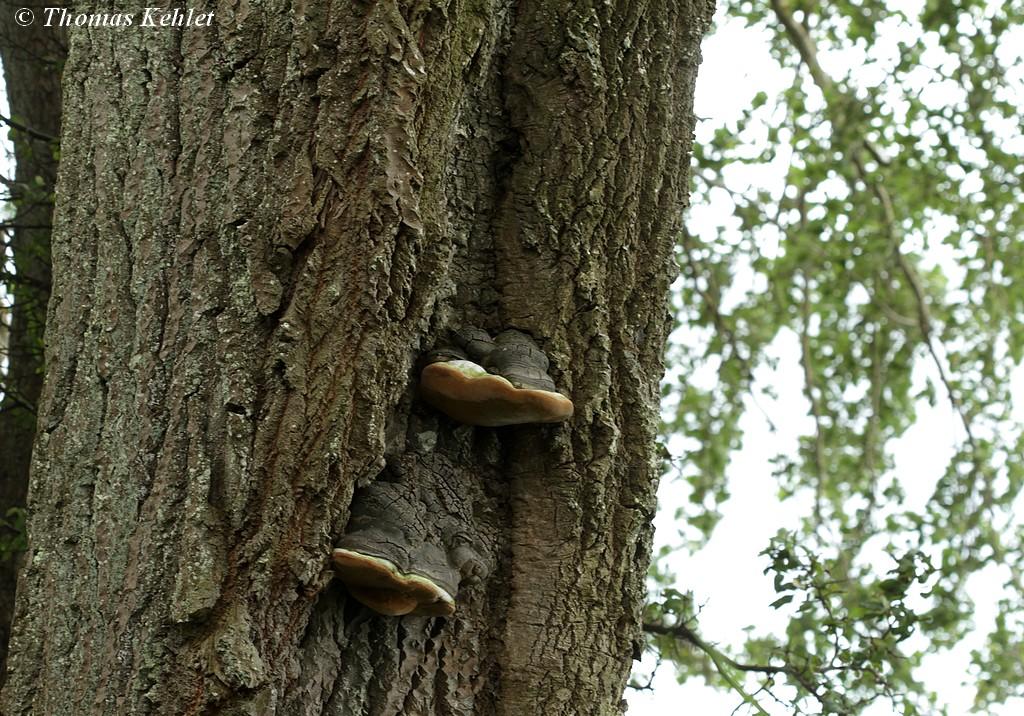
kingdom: Fungi
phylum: Basidiomycota
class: Agaricomycetes
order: Hymenochaetales
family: Hymenochaetaceae
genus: Phellinus
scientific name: Phellinus populicola
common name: poppel-ildporesvamp
